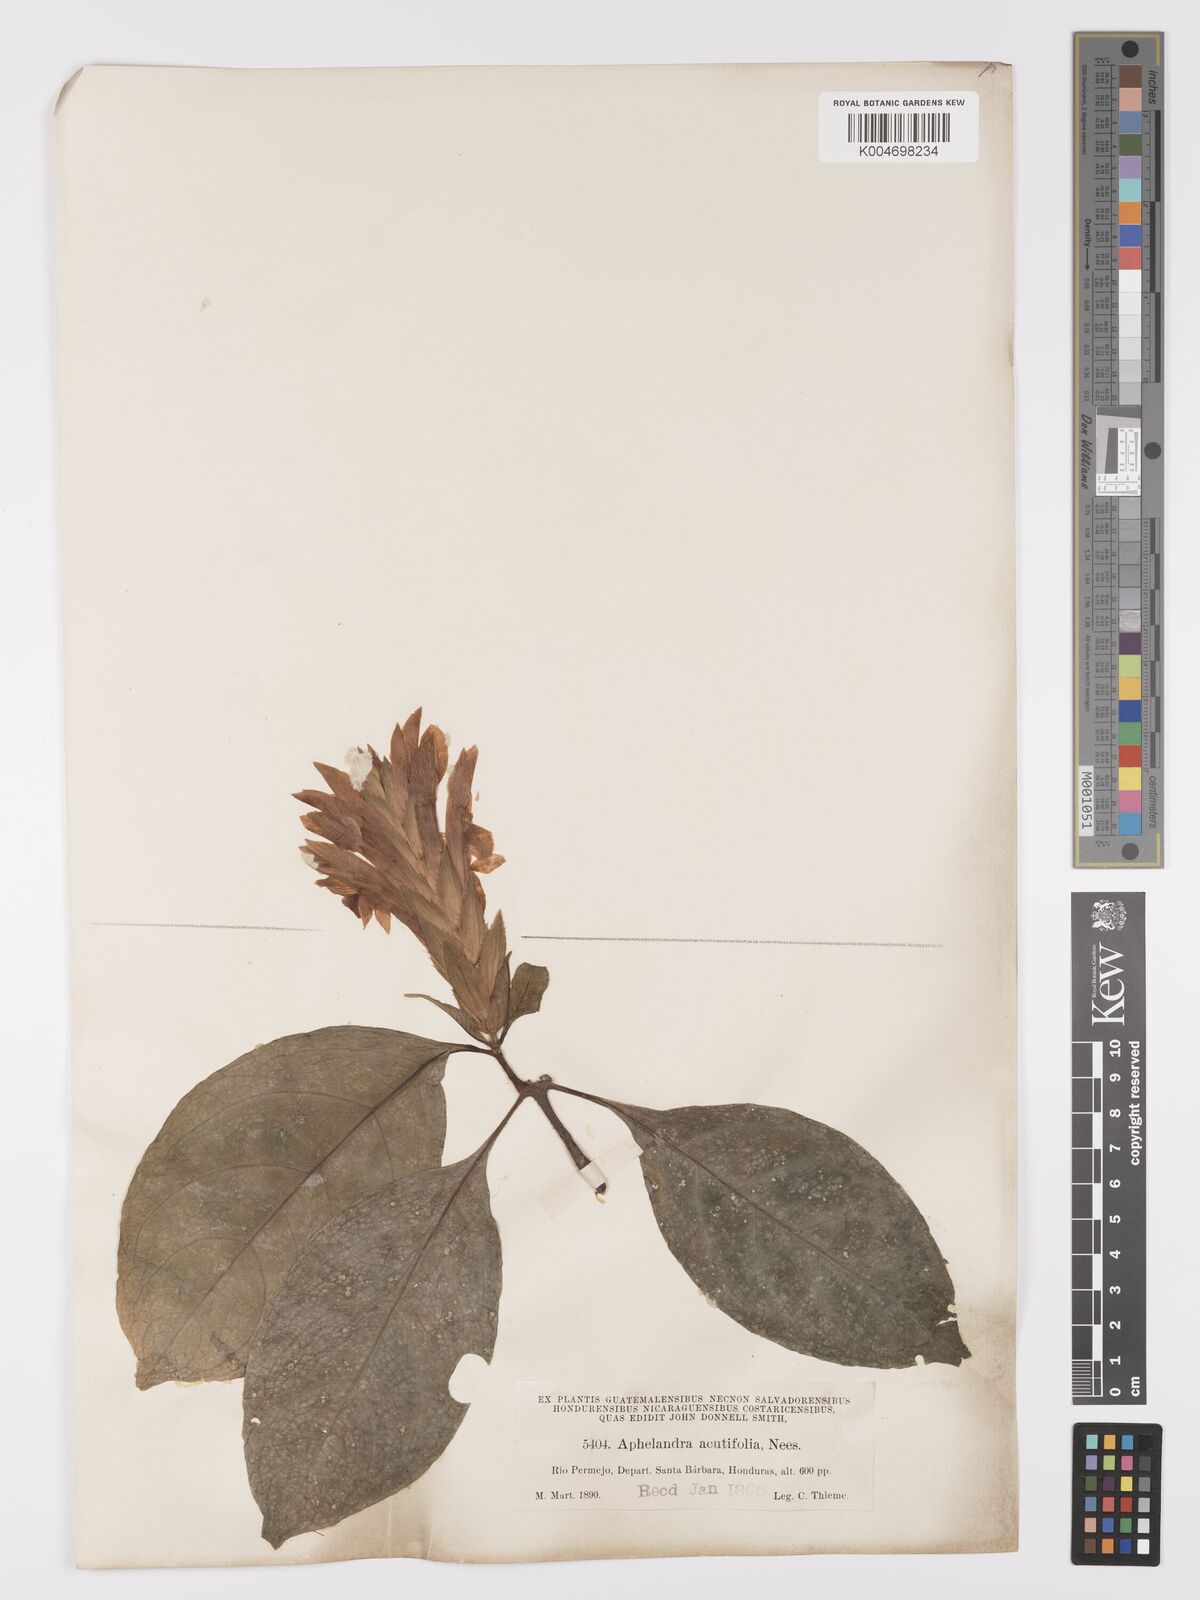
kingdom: Plantae
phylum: Tracheophyta
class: Magnoliopsida
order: Lamiales
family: Acanthaceae
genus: Aphelandra
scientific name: Aphelandra aurantiaca
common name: Fiery spike
